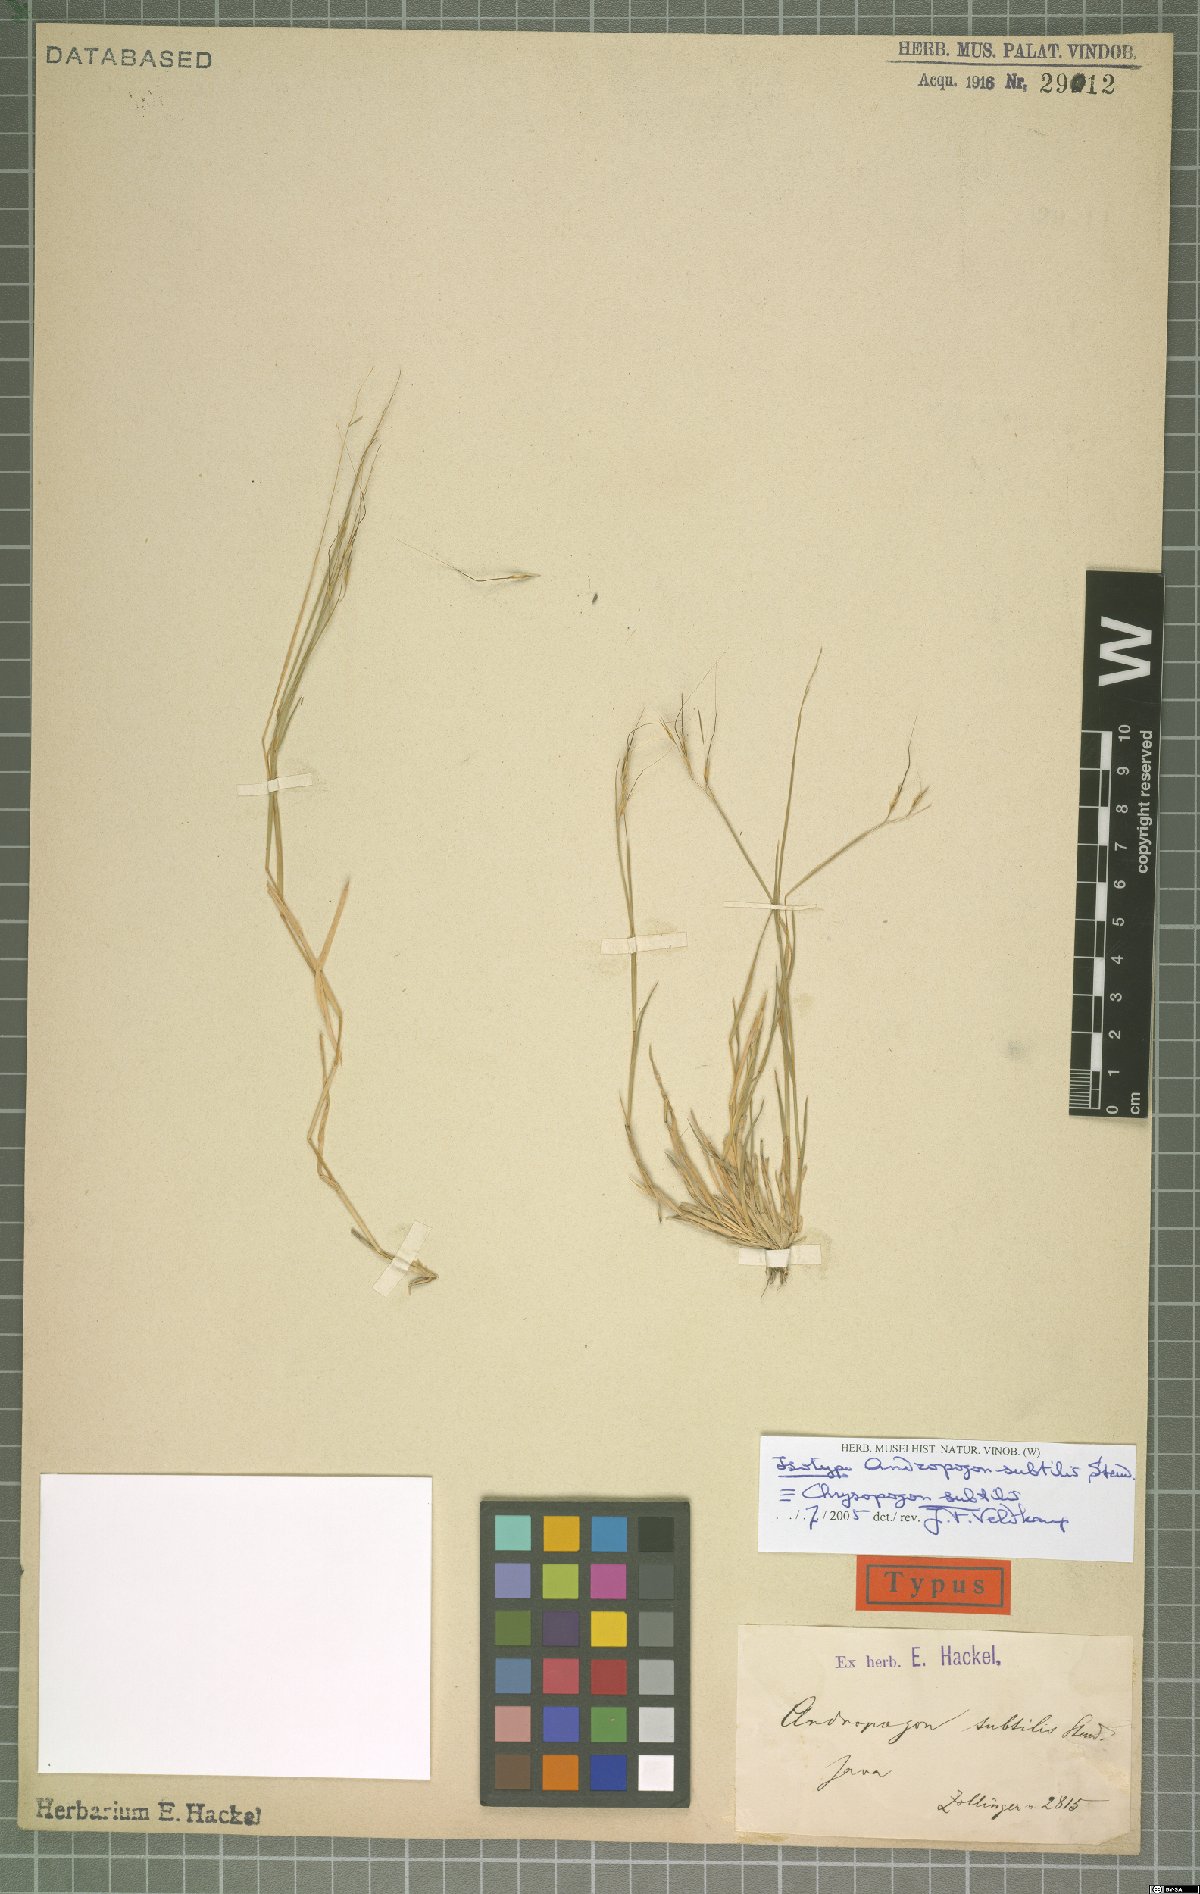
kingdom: Plantae
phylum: Tracheophyta
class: Liliopsida
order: Poales
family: Poaceae
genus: Chrysopogon
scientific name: Chrysopogon subtilis
